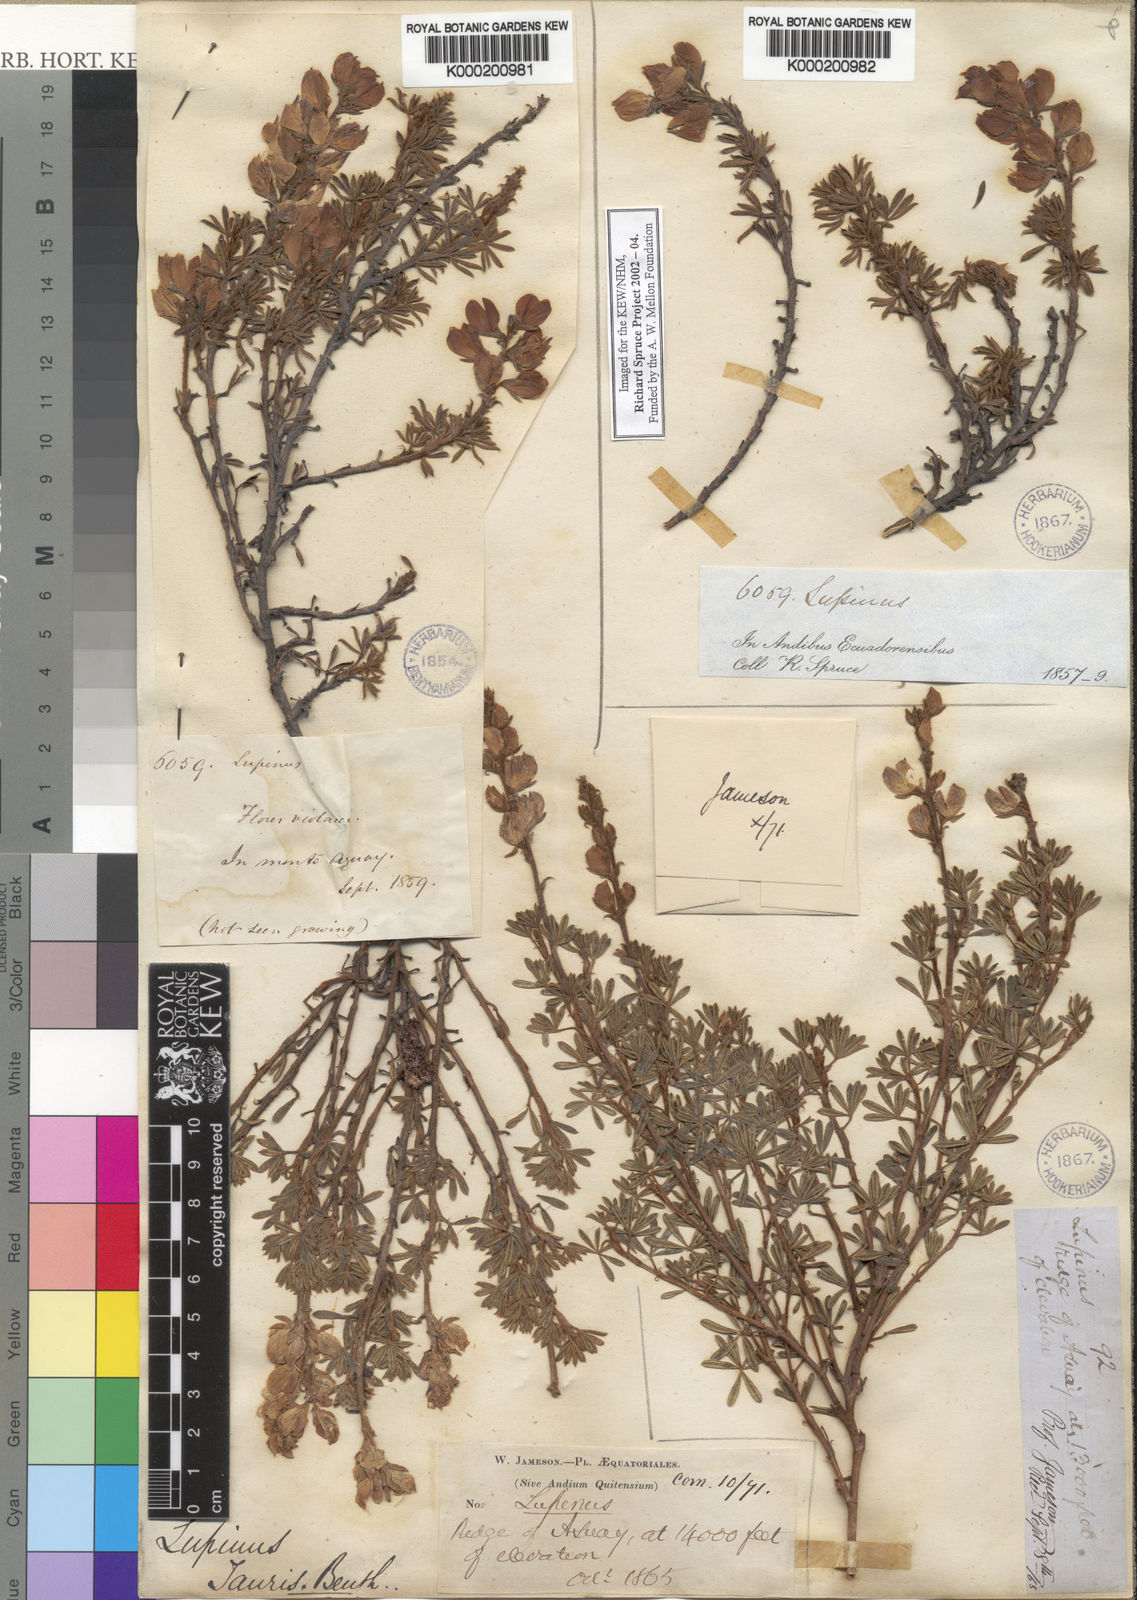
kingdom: Plantae
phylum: Tracheophyta
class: Magnoliopsida
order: Fabales
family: Fabaceae
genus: Lupinus
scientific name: Lupinus tauris
